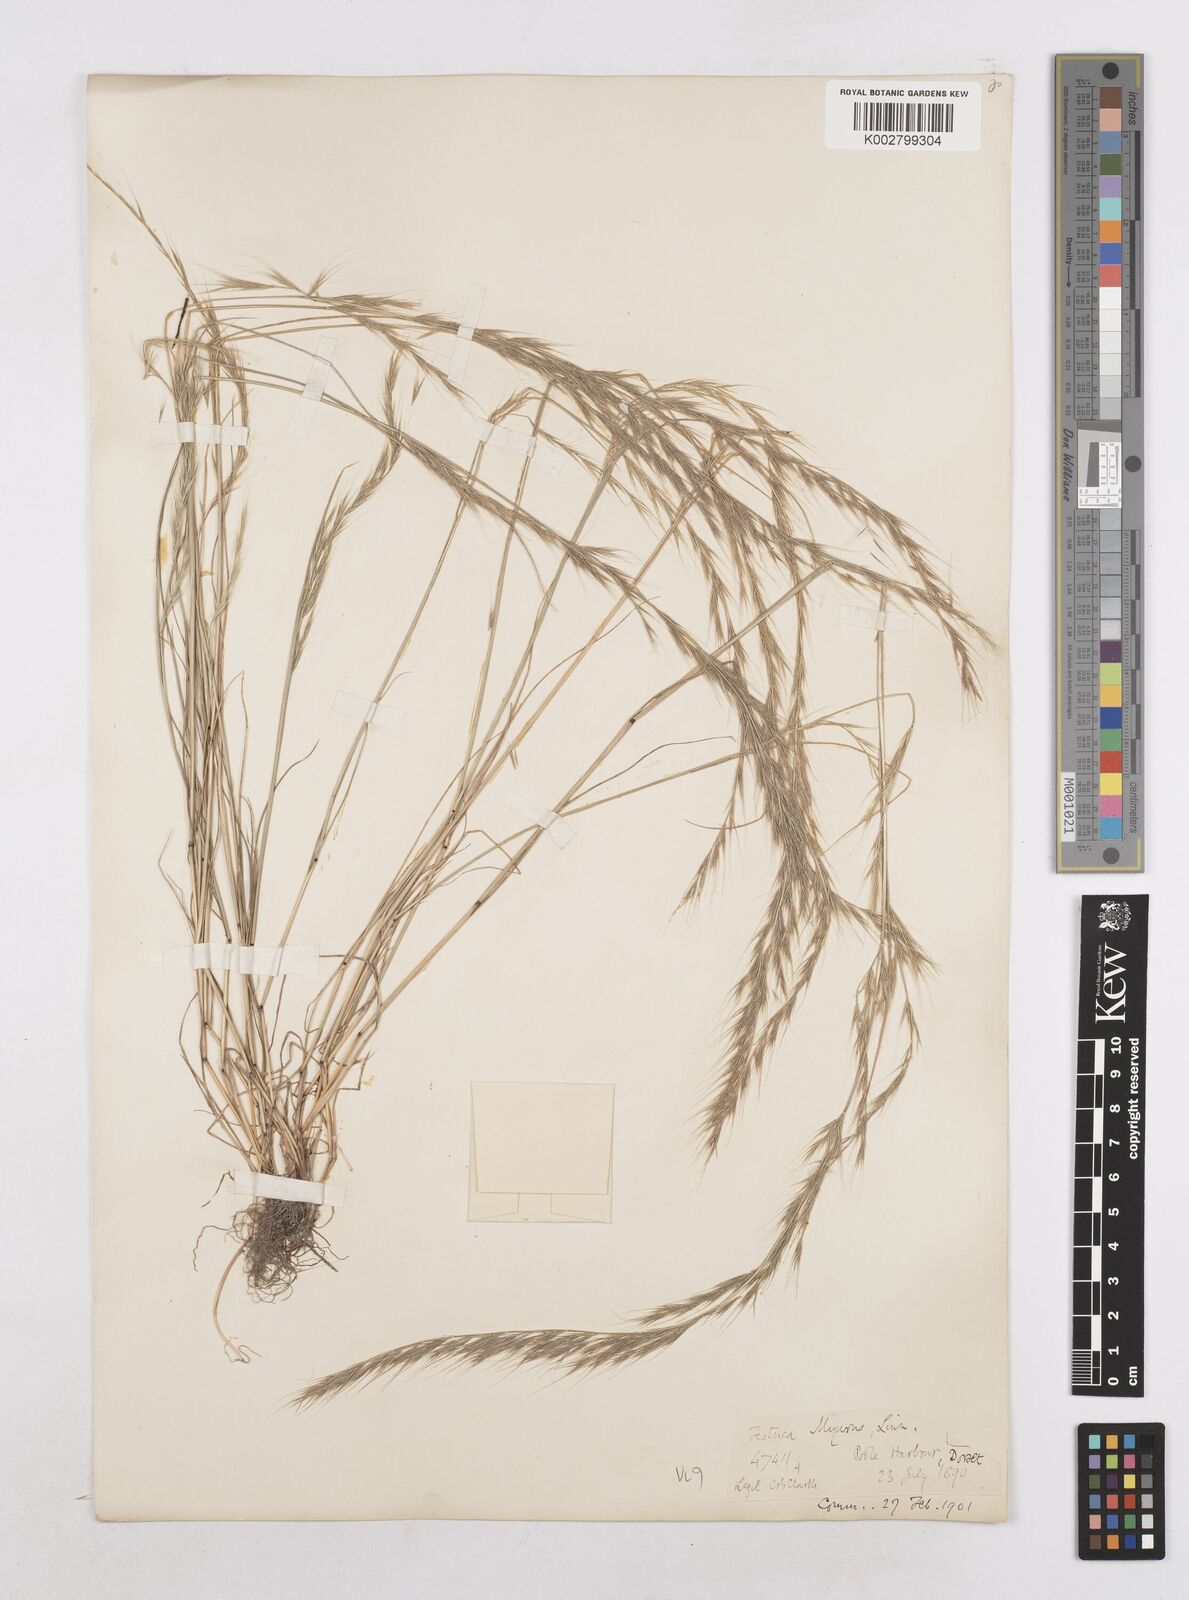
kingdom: Plantae
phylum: Tracheophyta
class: Liliopsida
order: Poales
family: Poaceae
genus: Festuca
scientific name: Festuca myuros
